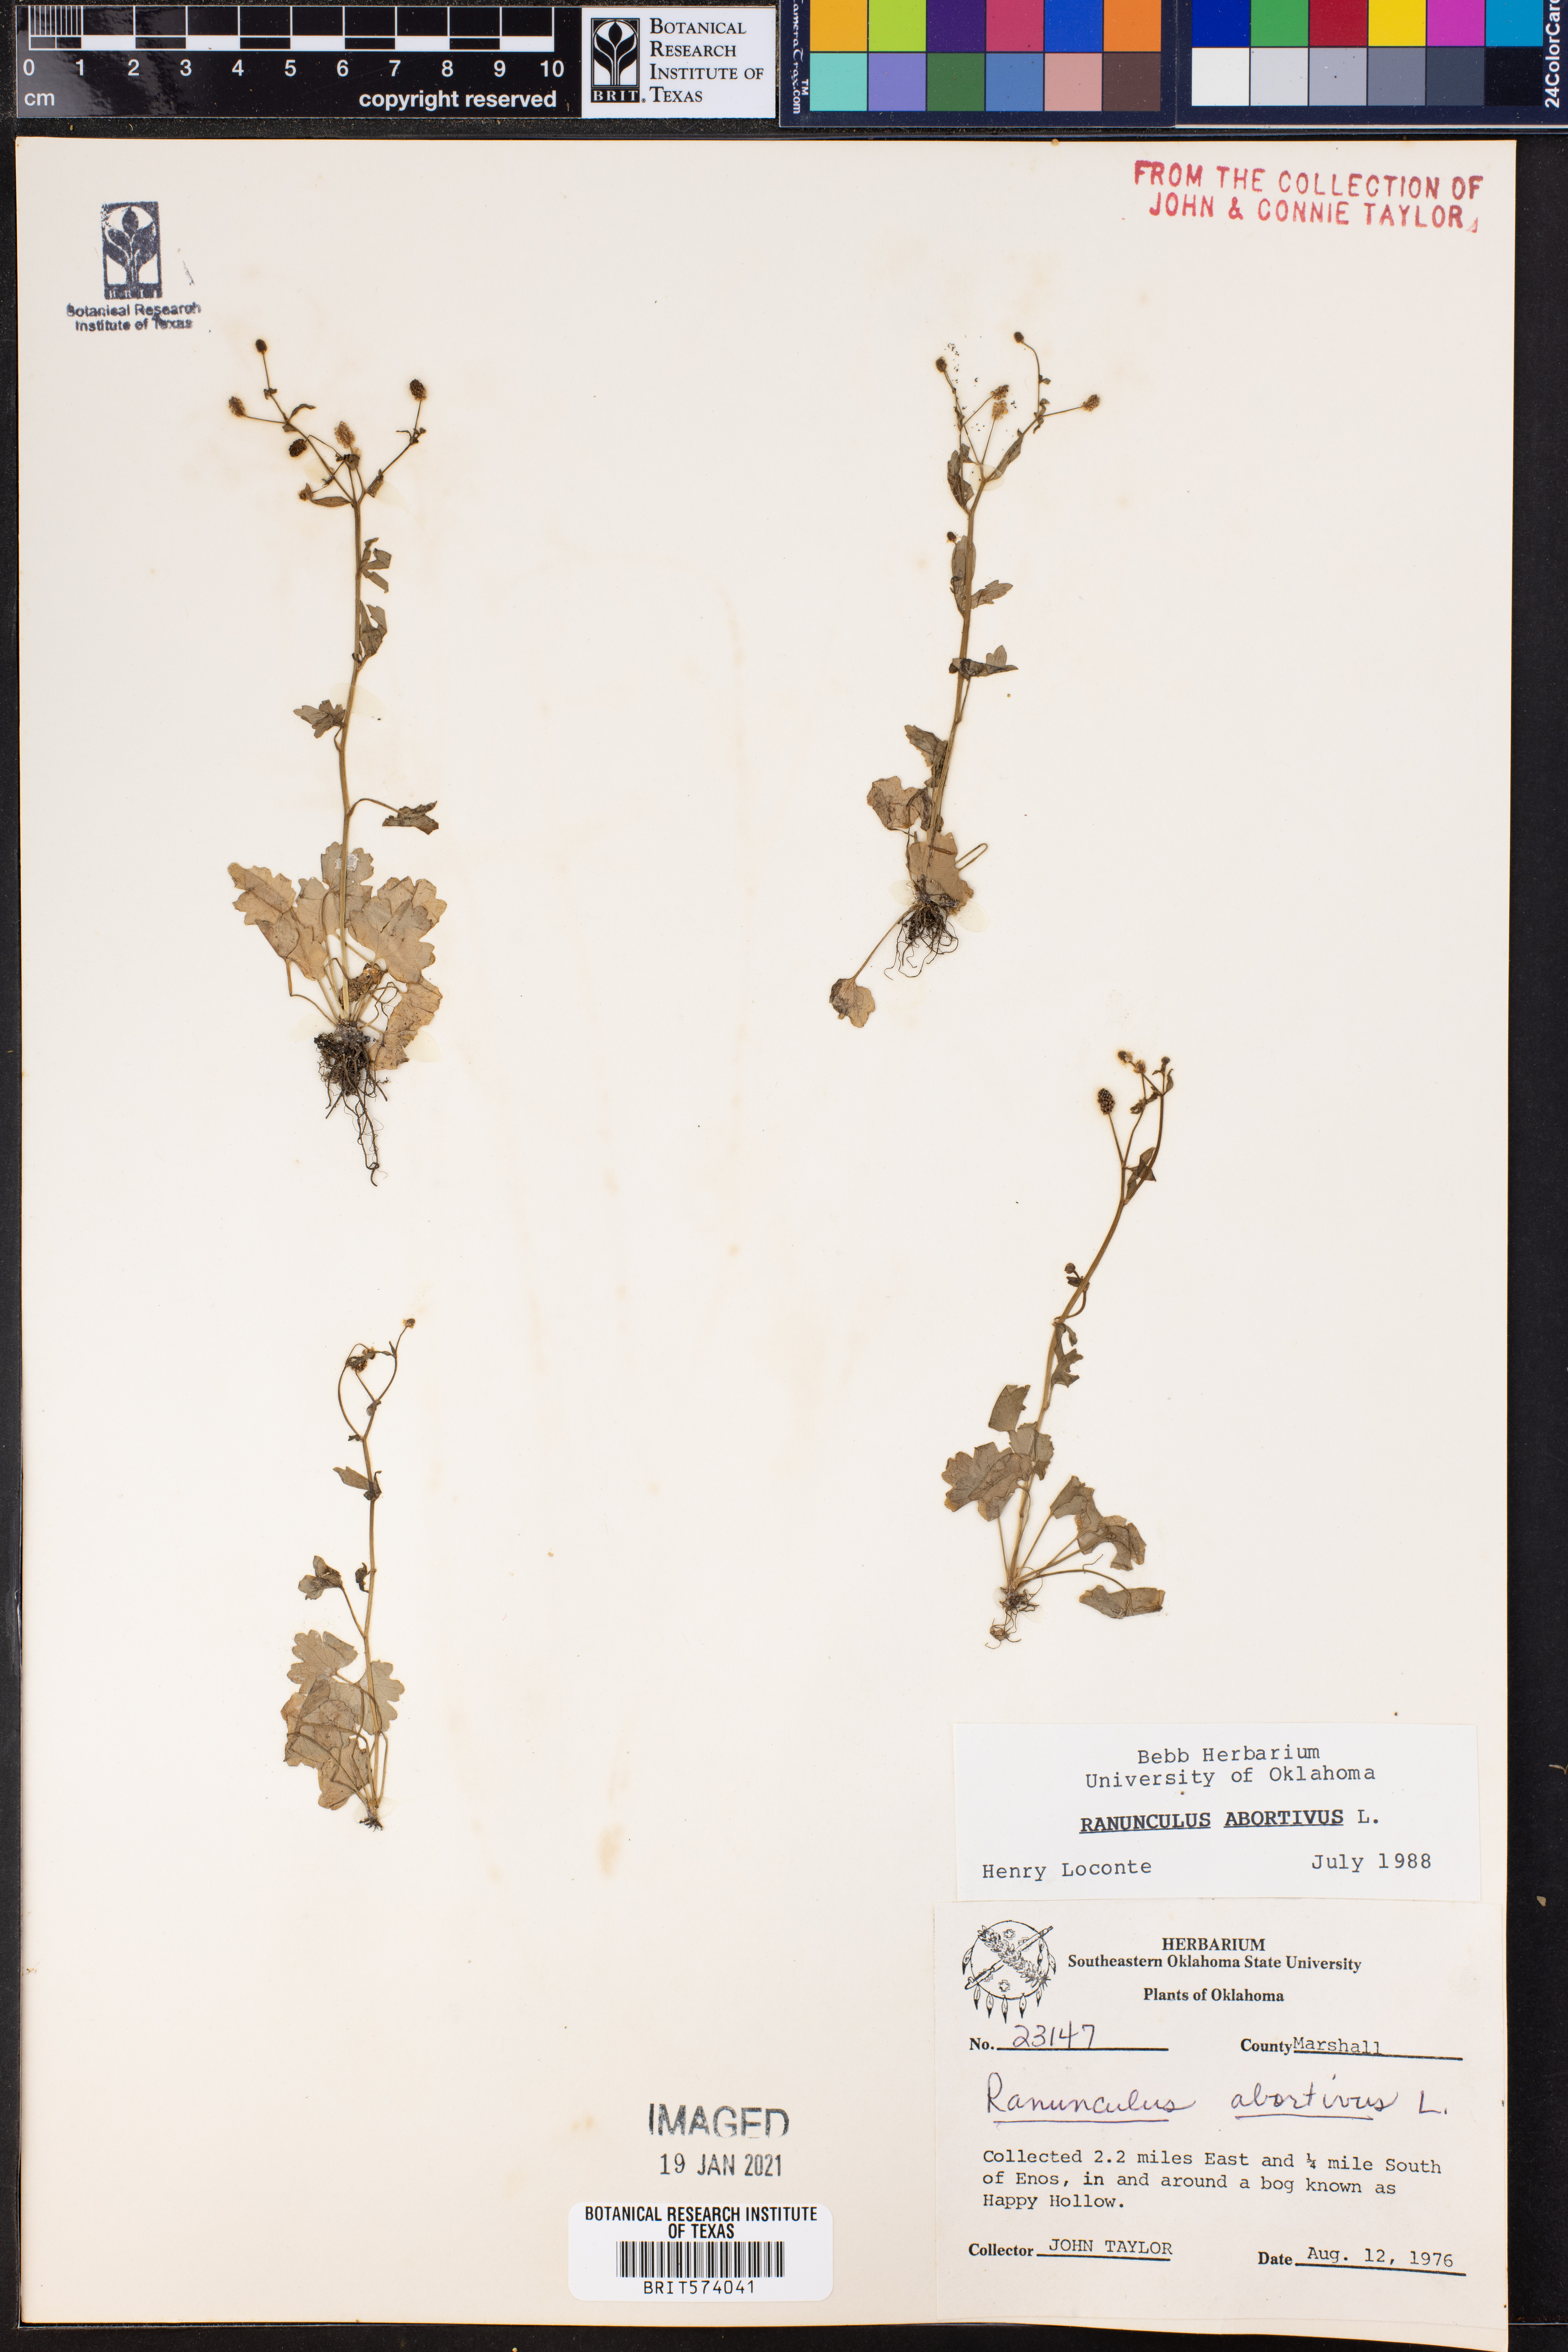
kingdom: Plantae
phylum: Tracheophyta
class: Magnoliopsida
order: Ranunculales
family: Ranunculaceae
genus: Ranunculus
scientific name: Ranunculus abortivus
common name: Early wood buttercup
